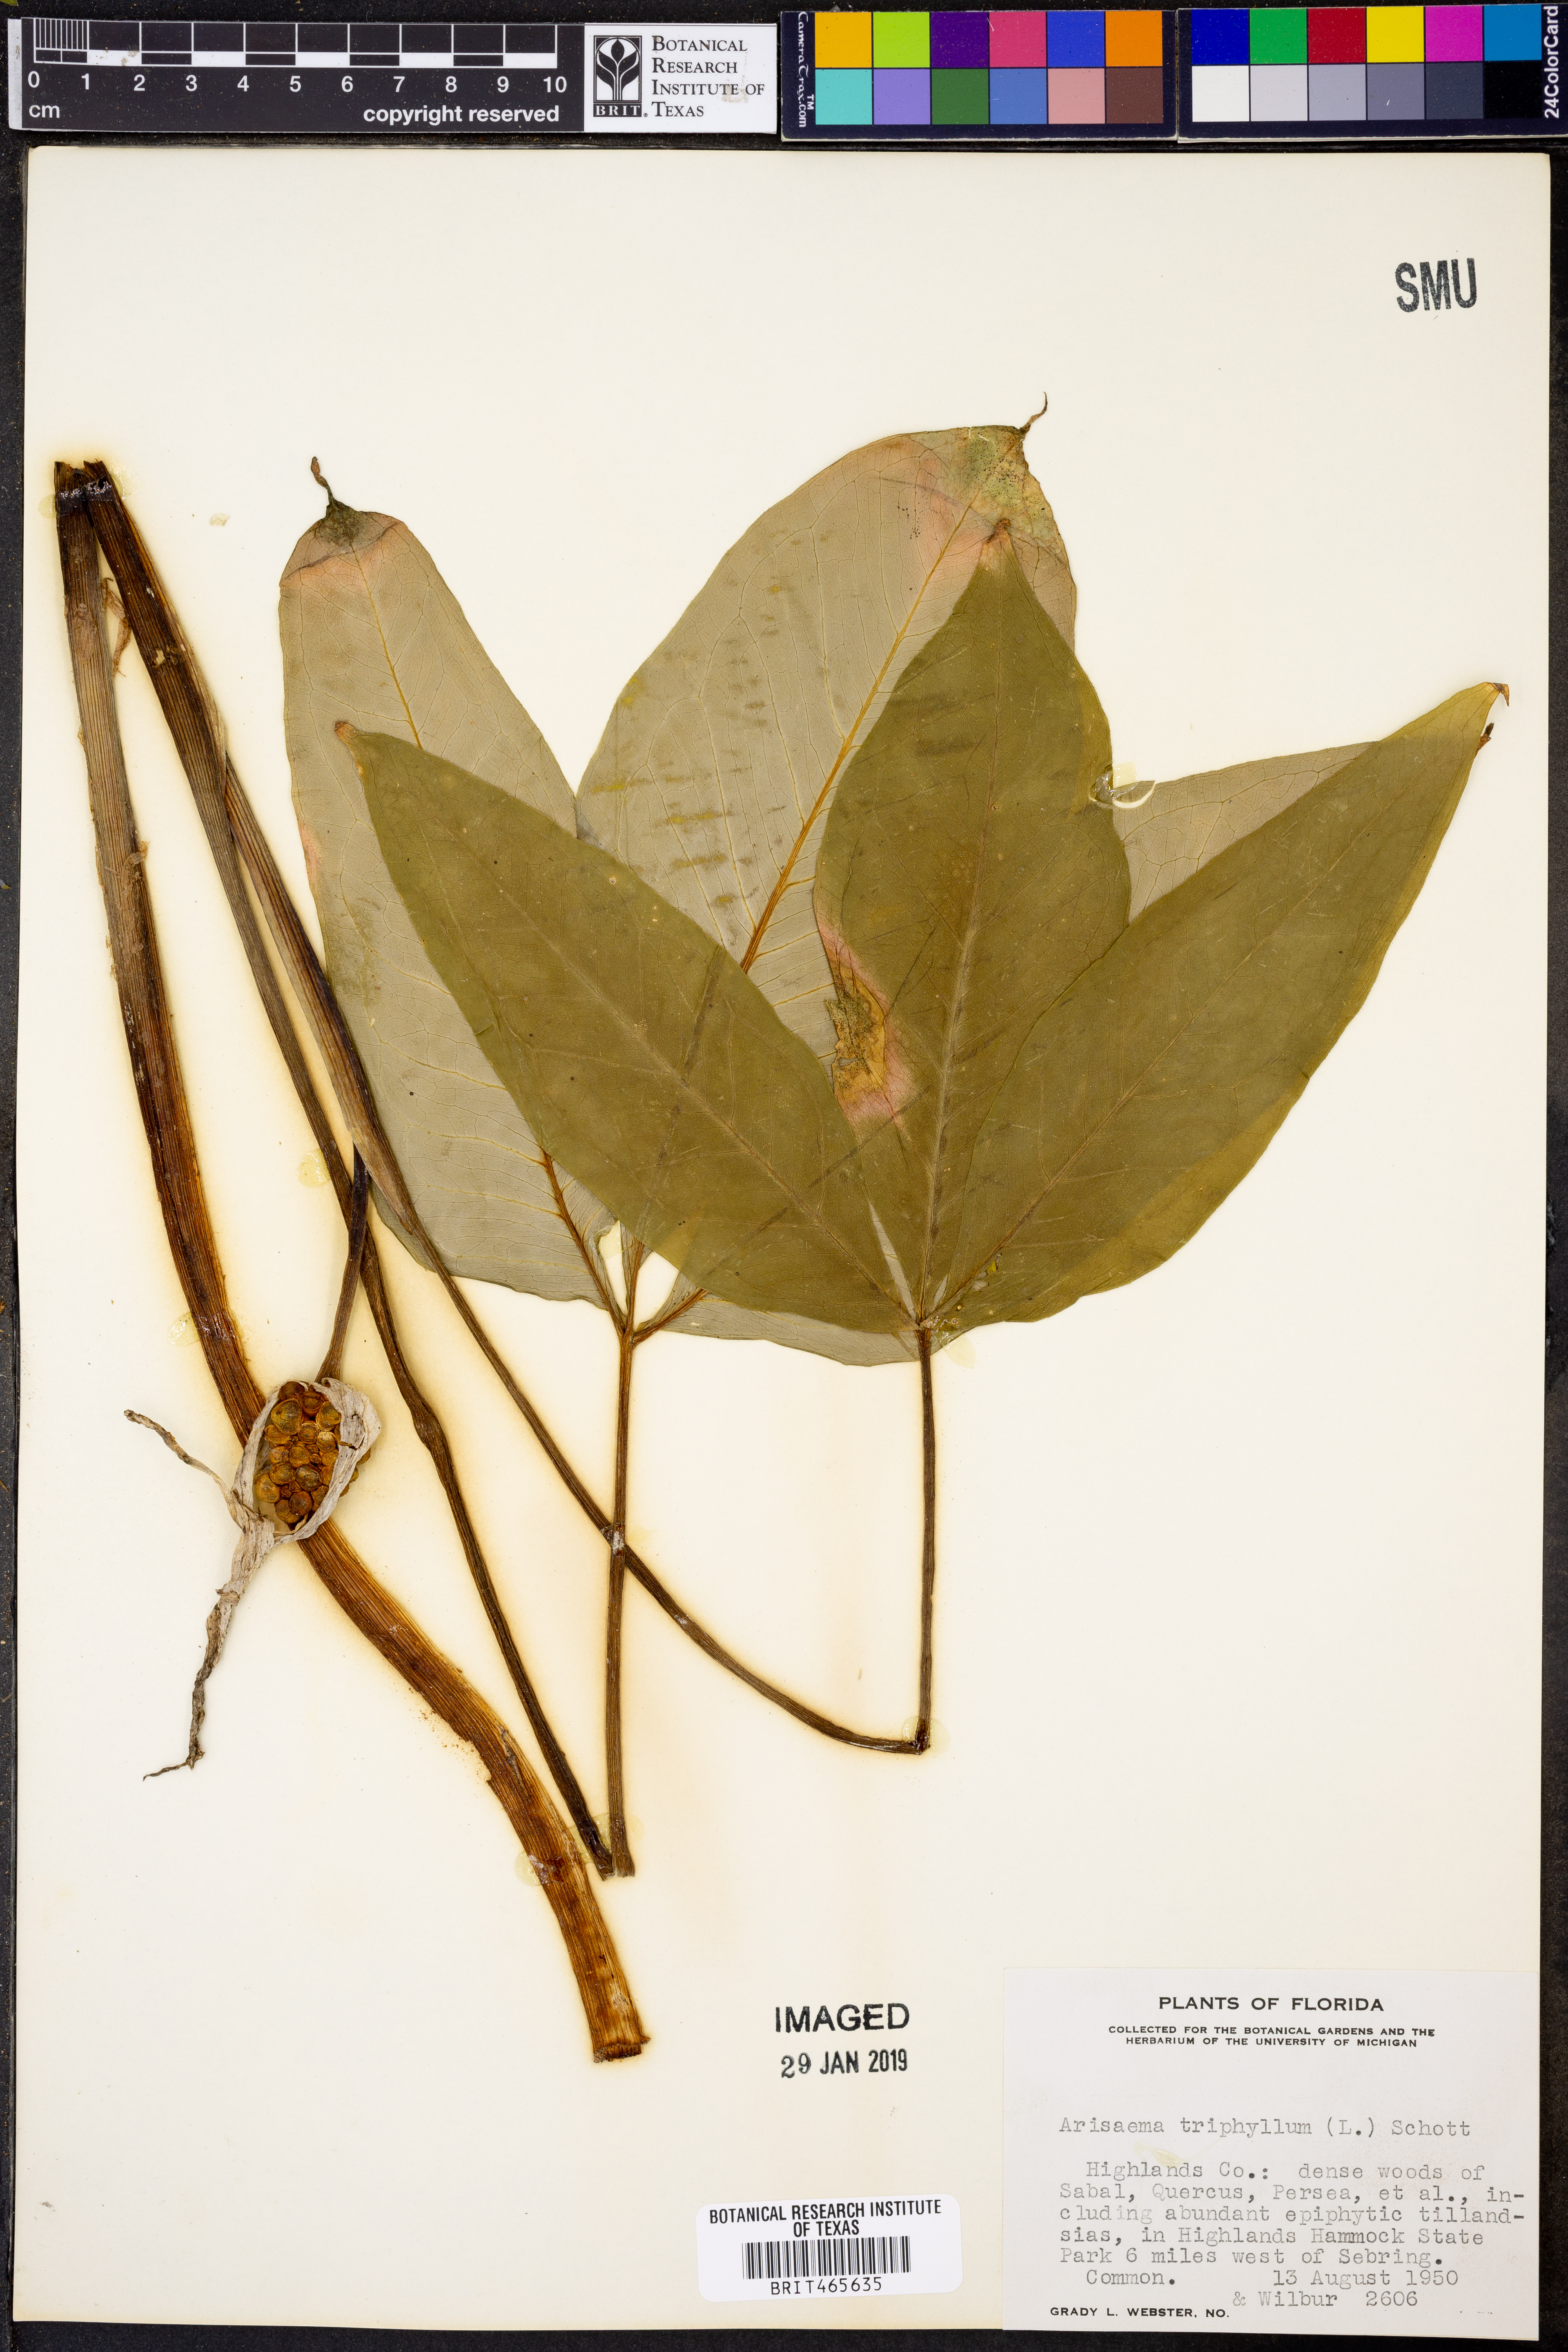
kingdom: Plantae
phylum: Tracheophyta
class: Liliopsida
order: Alismatales
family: Araceae
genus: Arisaema
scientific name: Arisaema triphyllum
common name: Jack-in-the-pulpit
